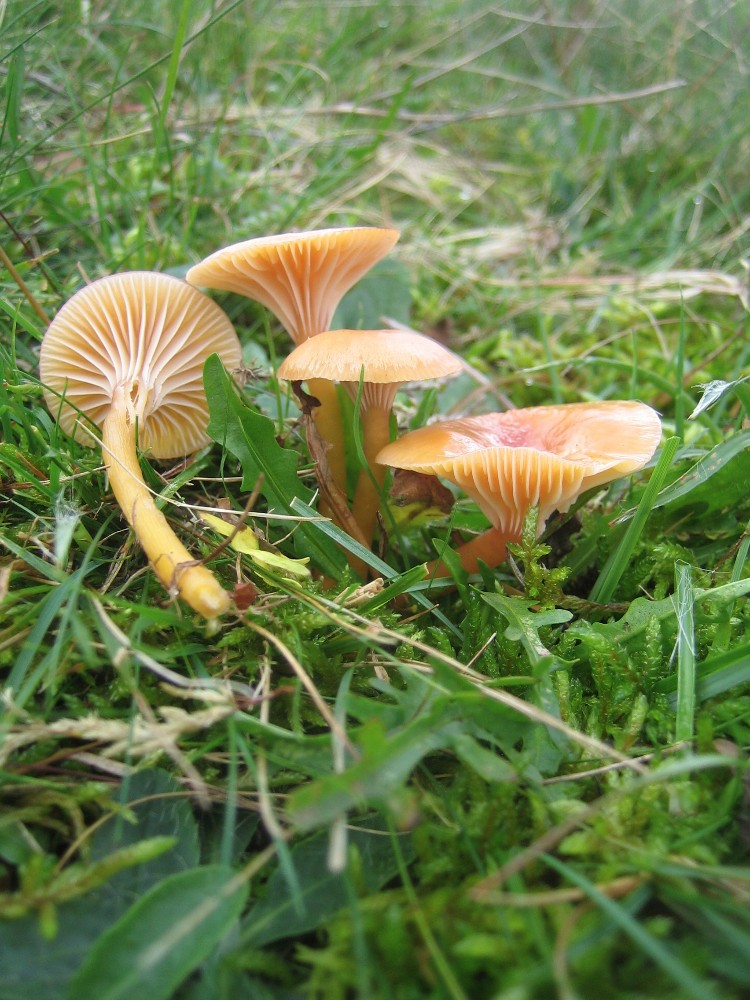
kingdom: Fungi
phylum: Basidiomycota
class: Agaricomycetes
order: Agaricales
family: Hygrophoraceae
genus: Gliophorus
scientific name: Gliophorus laetus
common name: brusk-vokshat
